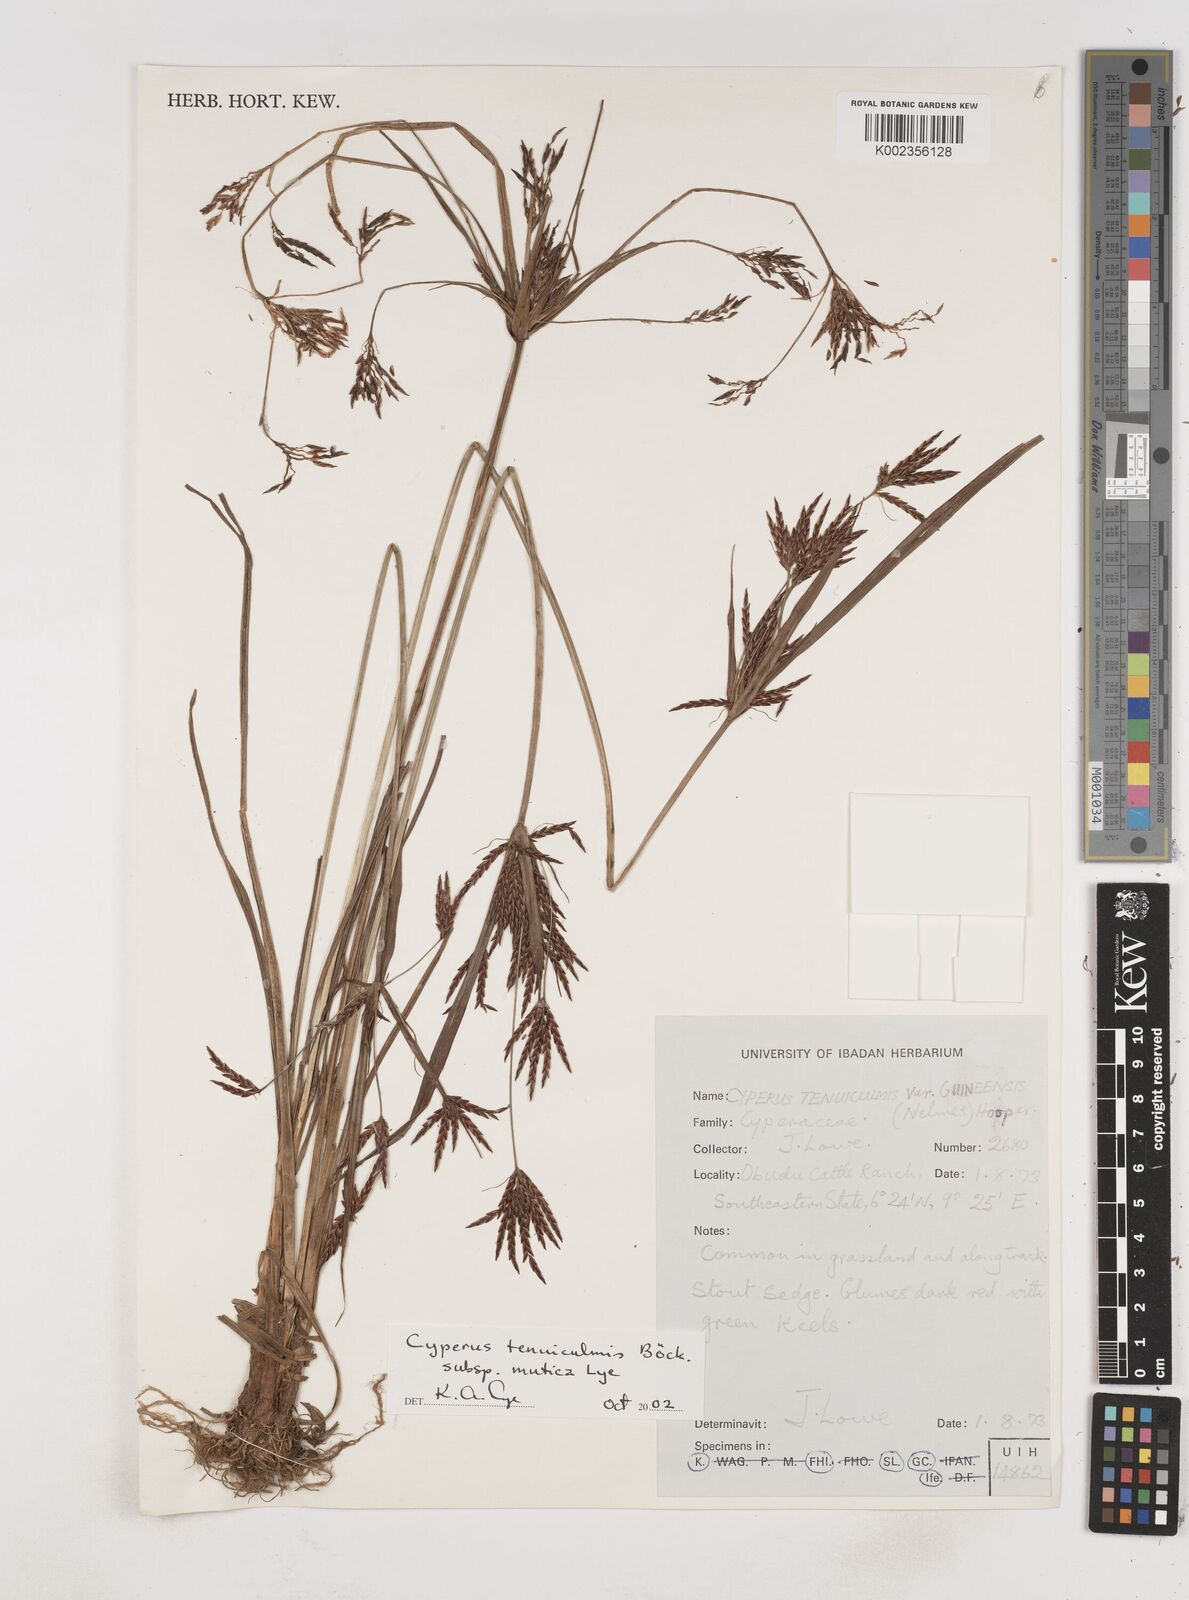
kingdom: Plantae
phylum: Tracheophyta
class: Liliopsida
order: Poales
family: Cyperaceae
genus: Cyperus
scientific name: Cyperus tenuiculmis
